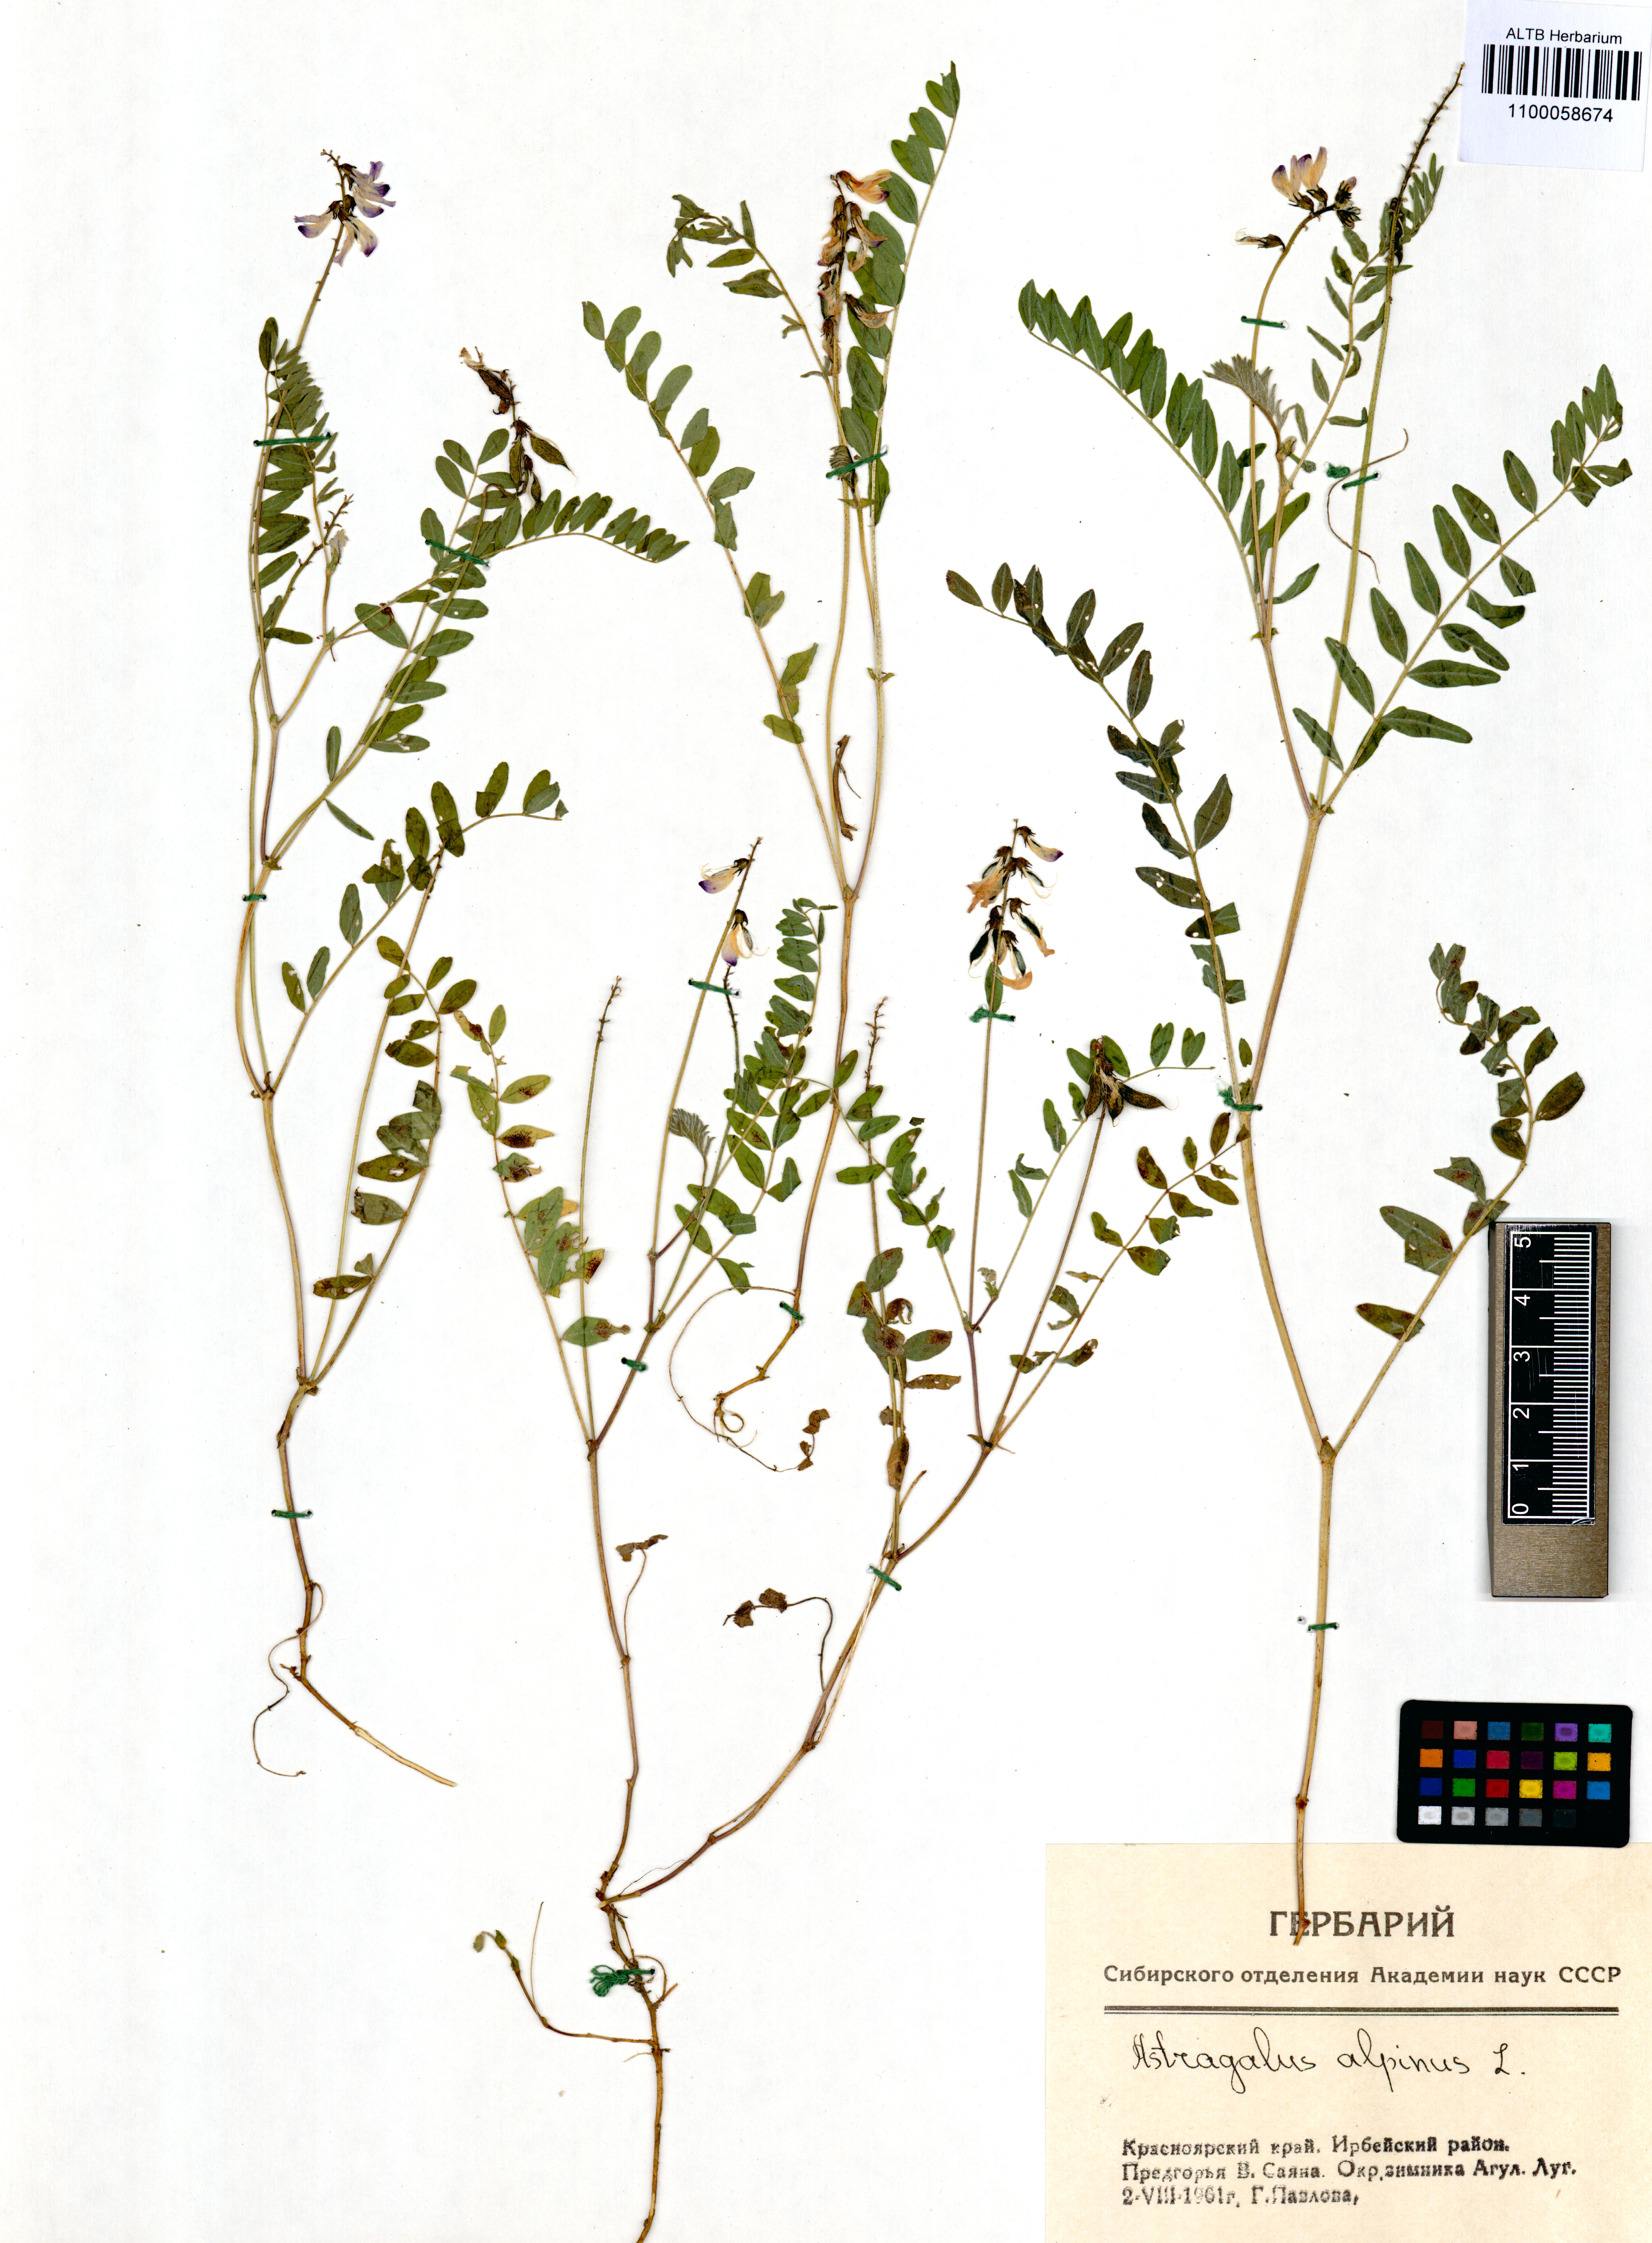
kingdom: Plantae
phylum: Tracheophyta
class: Magnoliopsida
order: Fabales
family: Fabaceae
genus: Astragalus
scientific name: Astragalus alpinus
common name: Alpine milk-vetch
